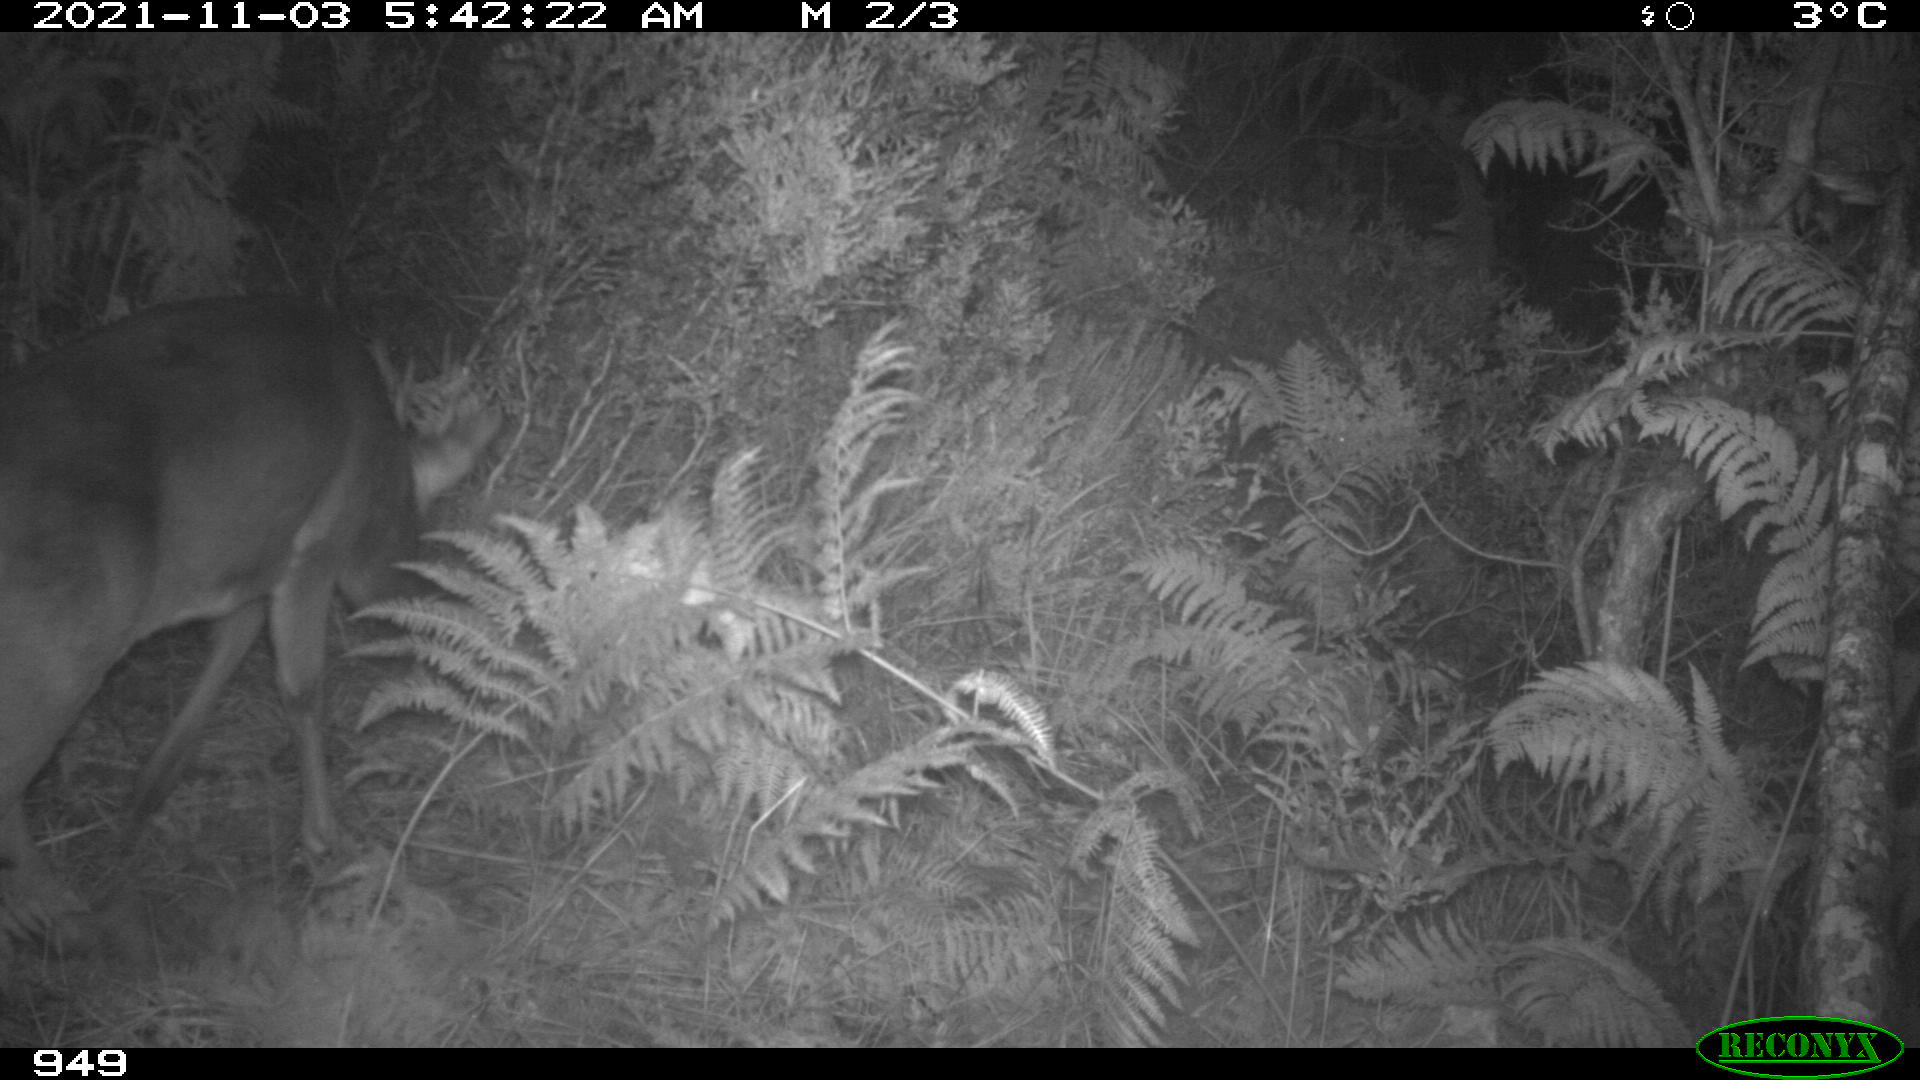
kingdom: Animalia
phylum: Chordata
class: Mammalia
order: Artiodactyla
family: Cervidae
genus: Capreolus
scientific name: Capreolus capreolus
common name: Western roe deer
